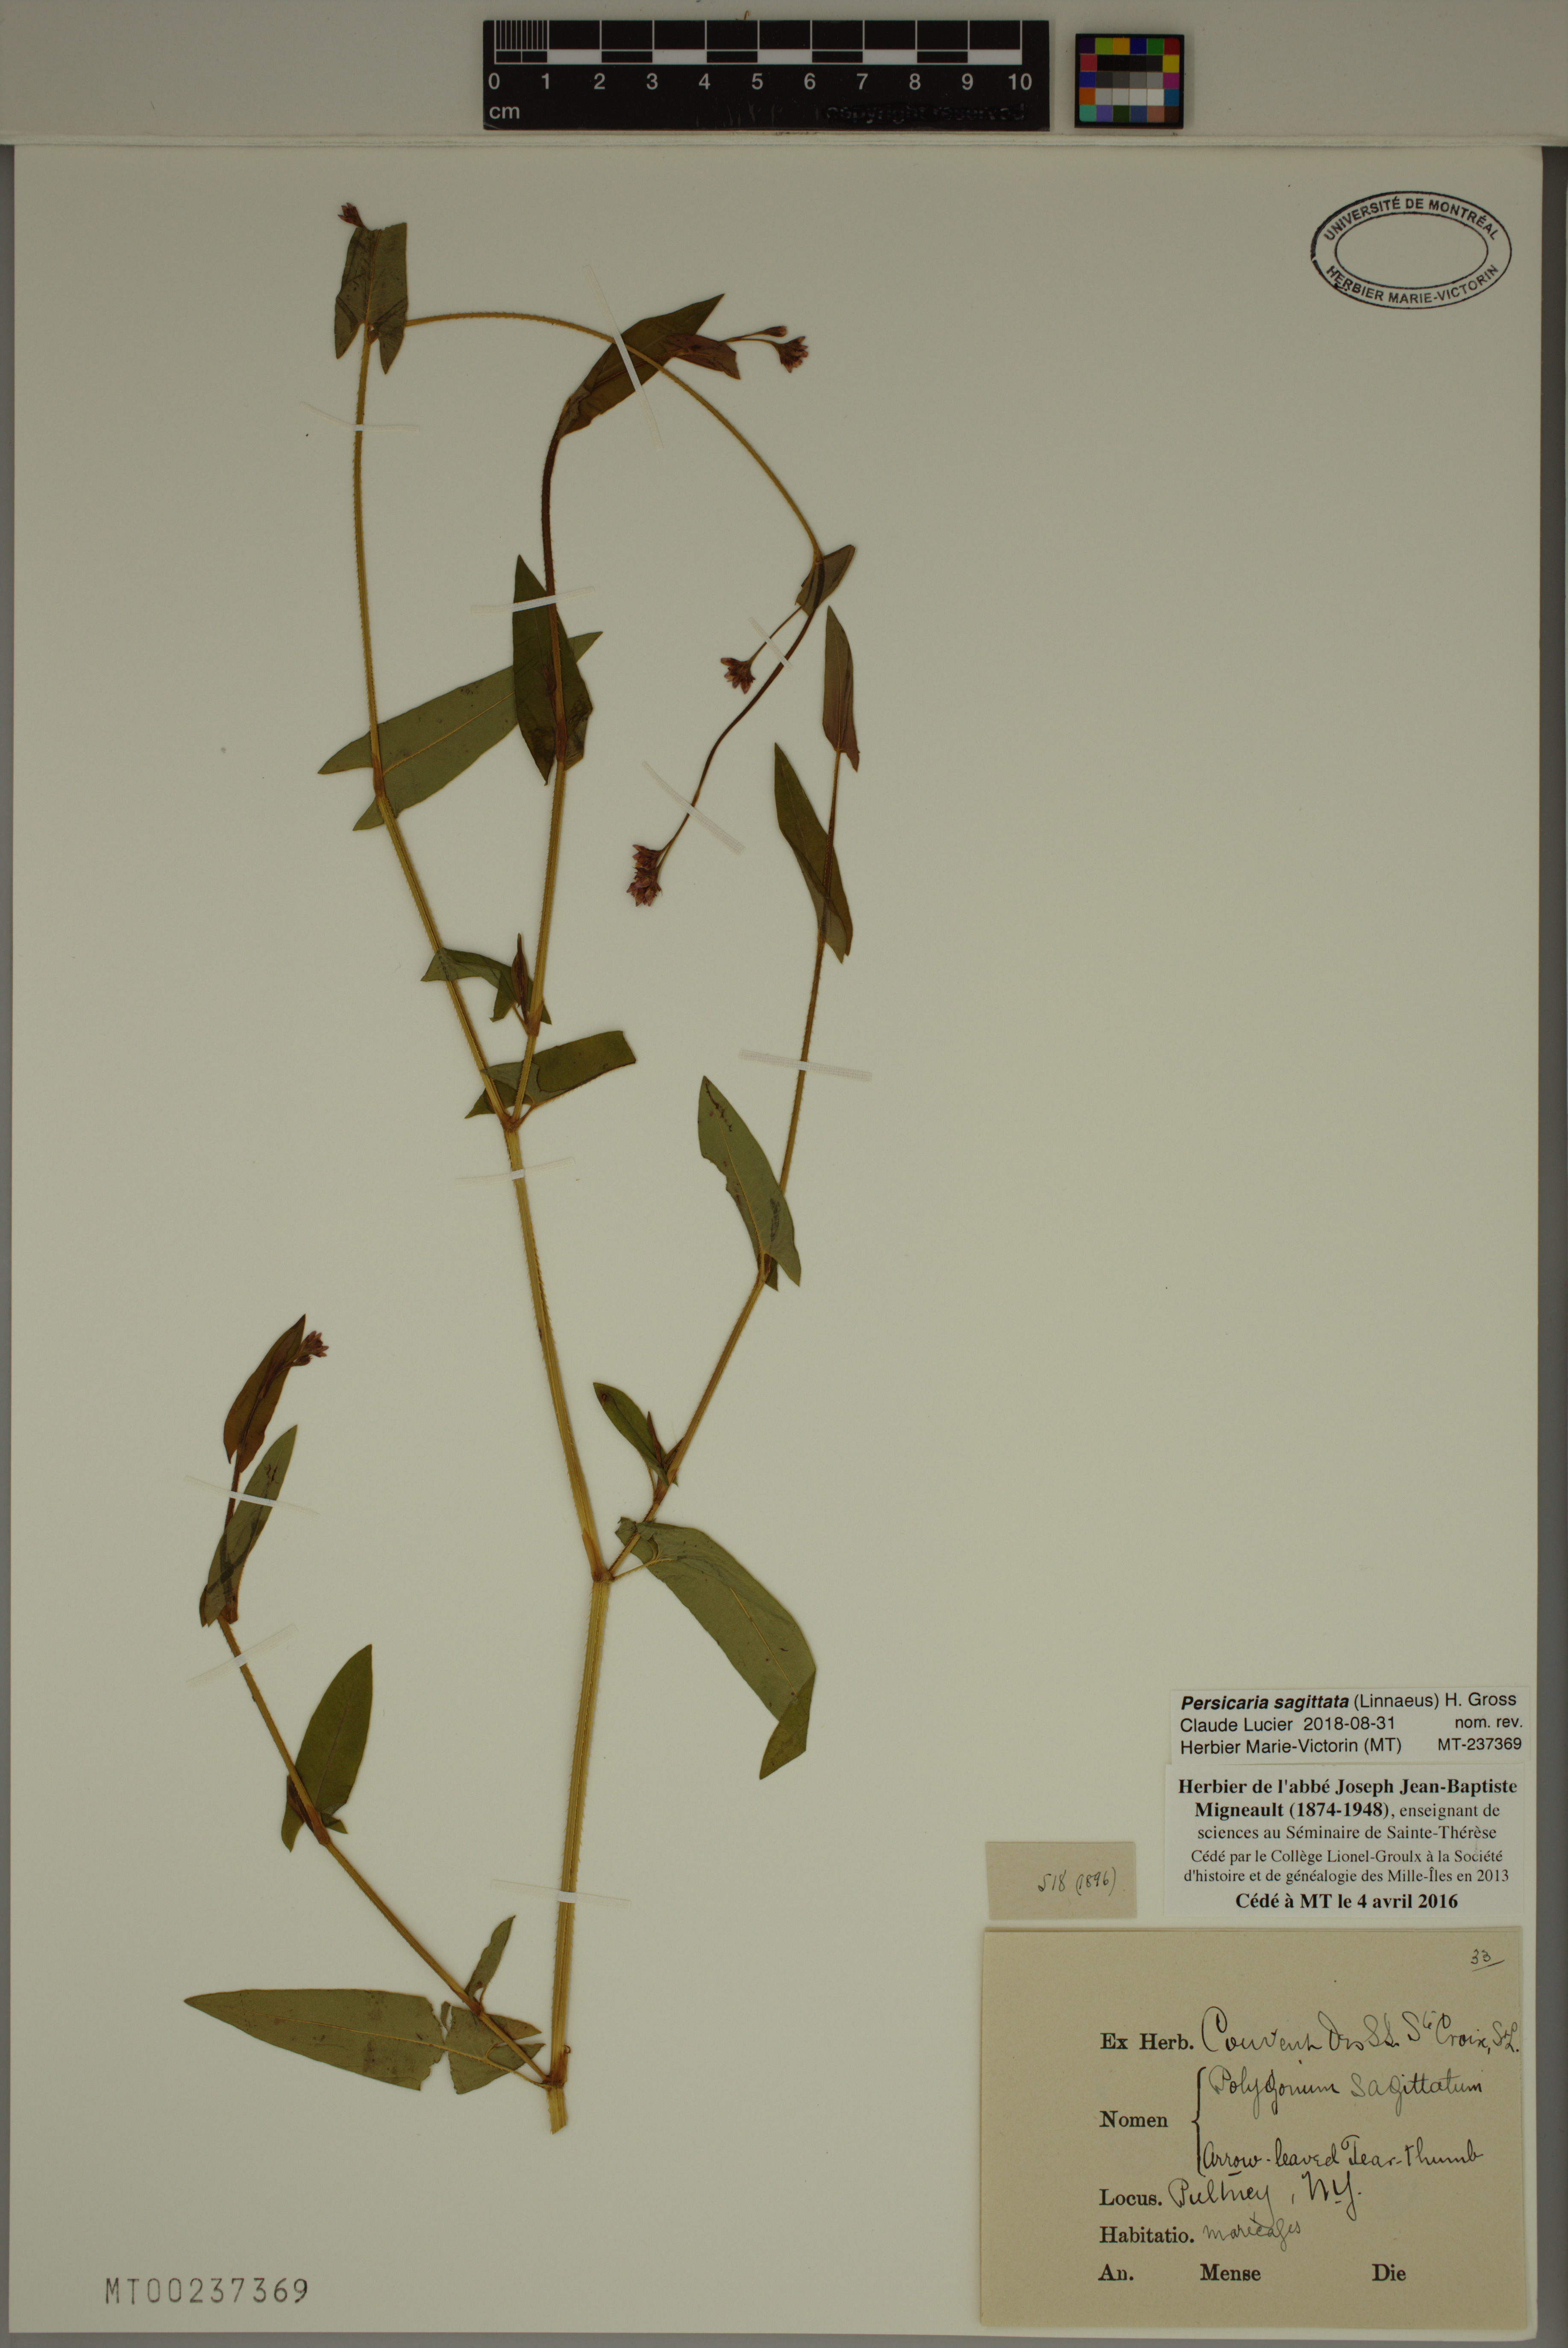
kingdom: Plantae
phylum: Tracheophyta
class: Magnoliopsida
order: Caryophyllales
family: Polygonaceae
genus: Persicaria
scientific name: Persicaria sagittata
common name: American tearthumb
